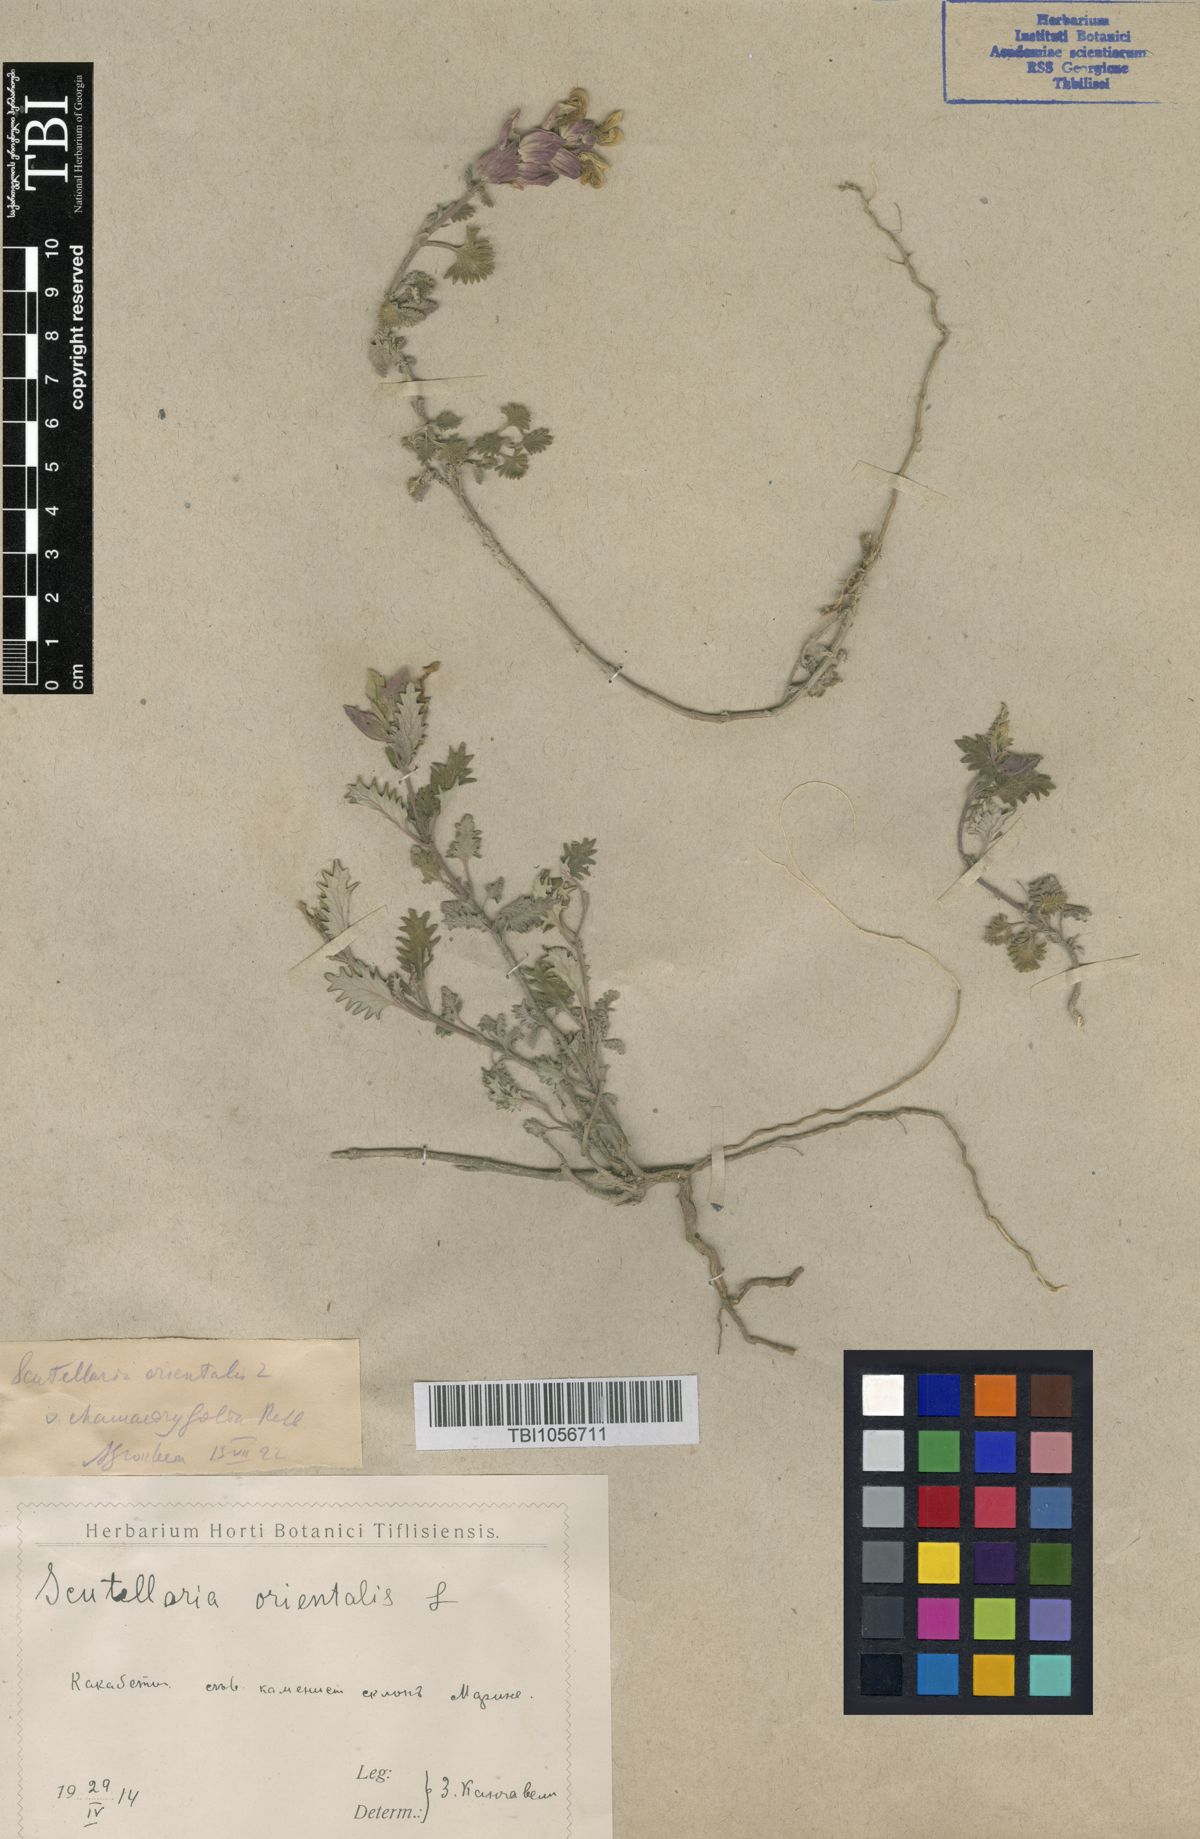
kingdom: Plantae
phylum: Tracheophyta
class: Magnoliopsida
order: Lamiales
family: Lamiaceae
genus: Scutellaria
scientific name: Scutellaria orientalis
